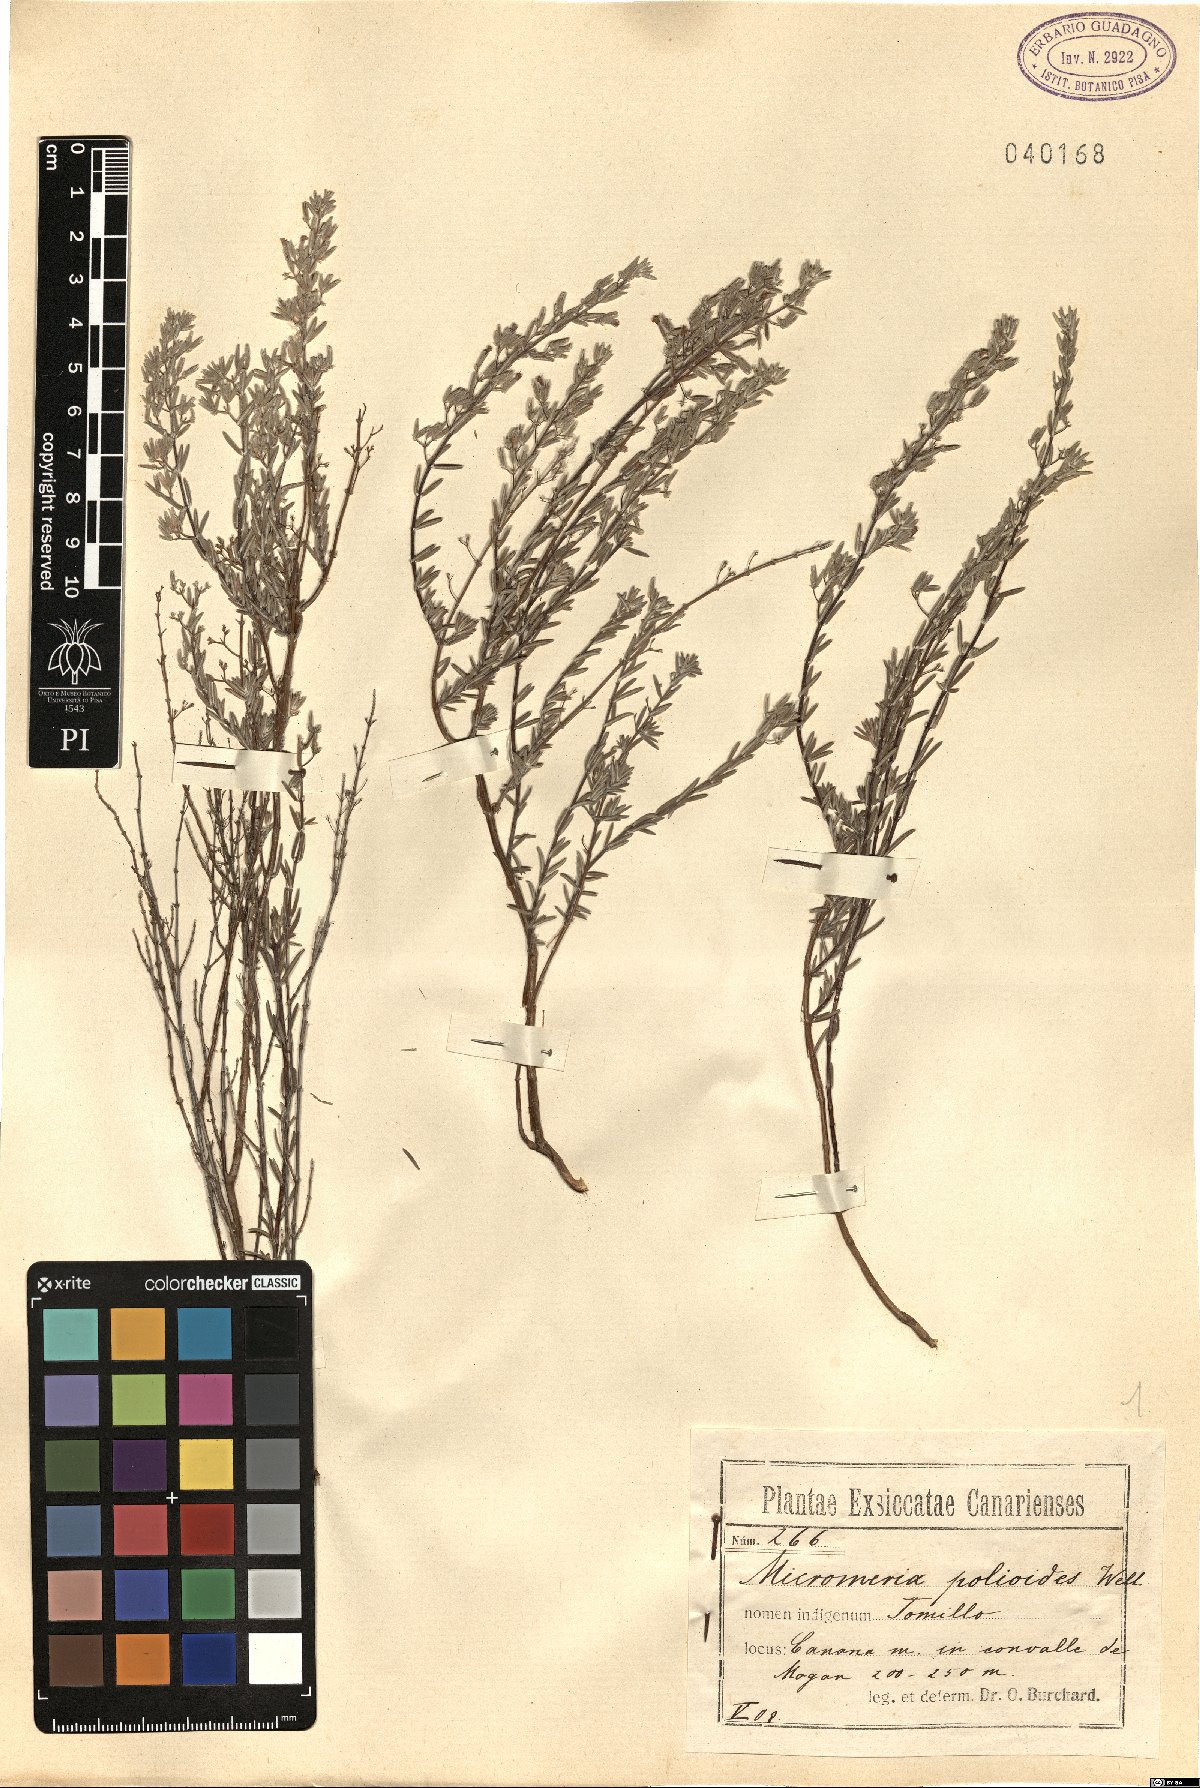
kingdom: Plantae
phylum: Tracheophyta
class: Magnoliopsida
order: Lamiales
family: Lamiaceae
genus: Micromeria
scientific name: Micromeria tenuis
